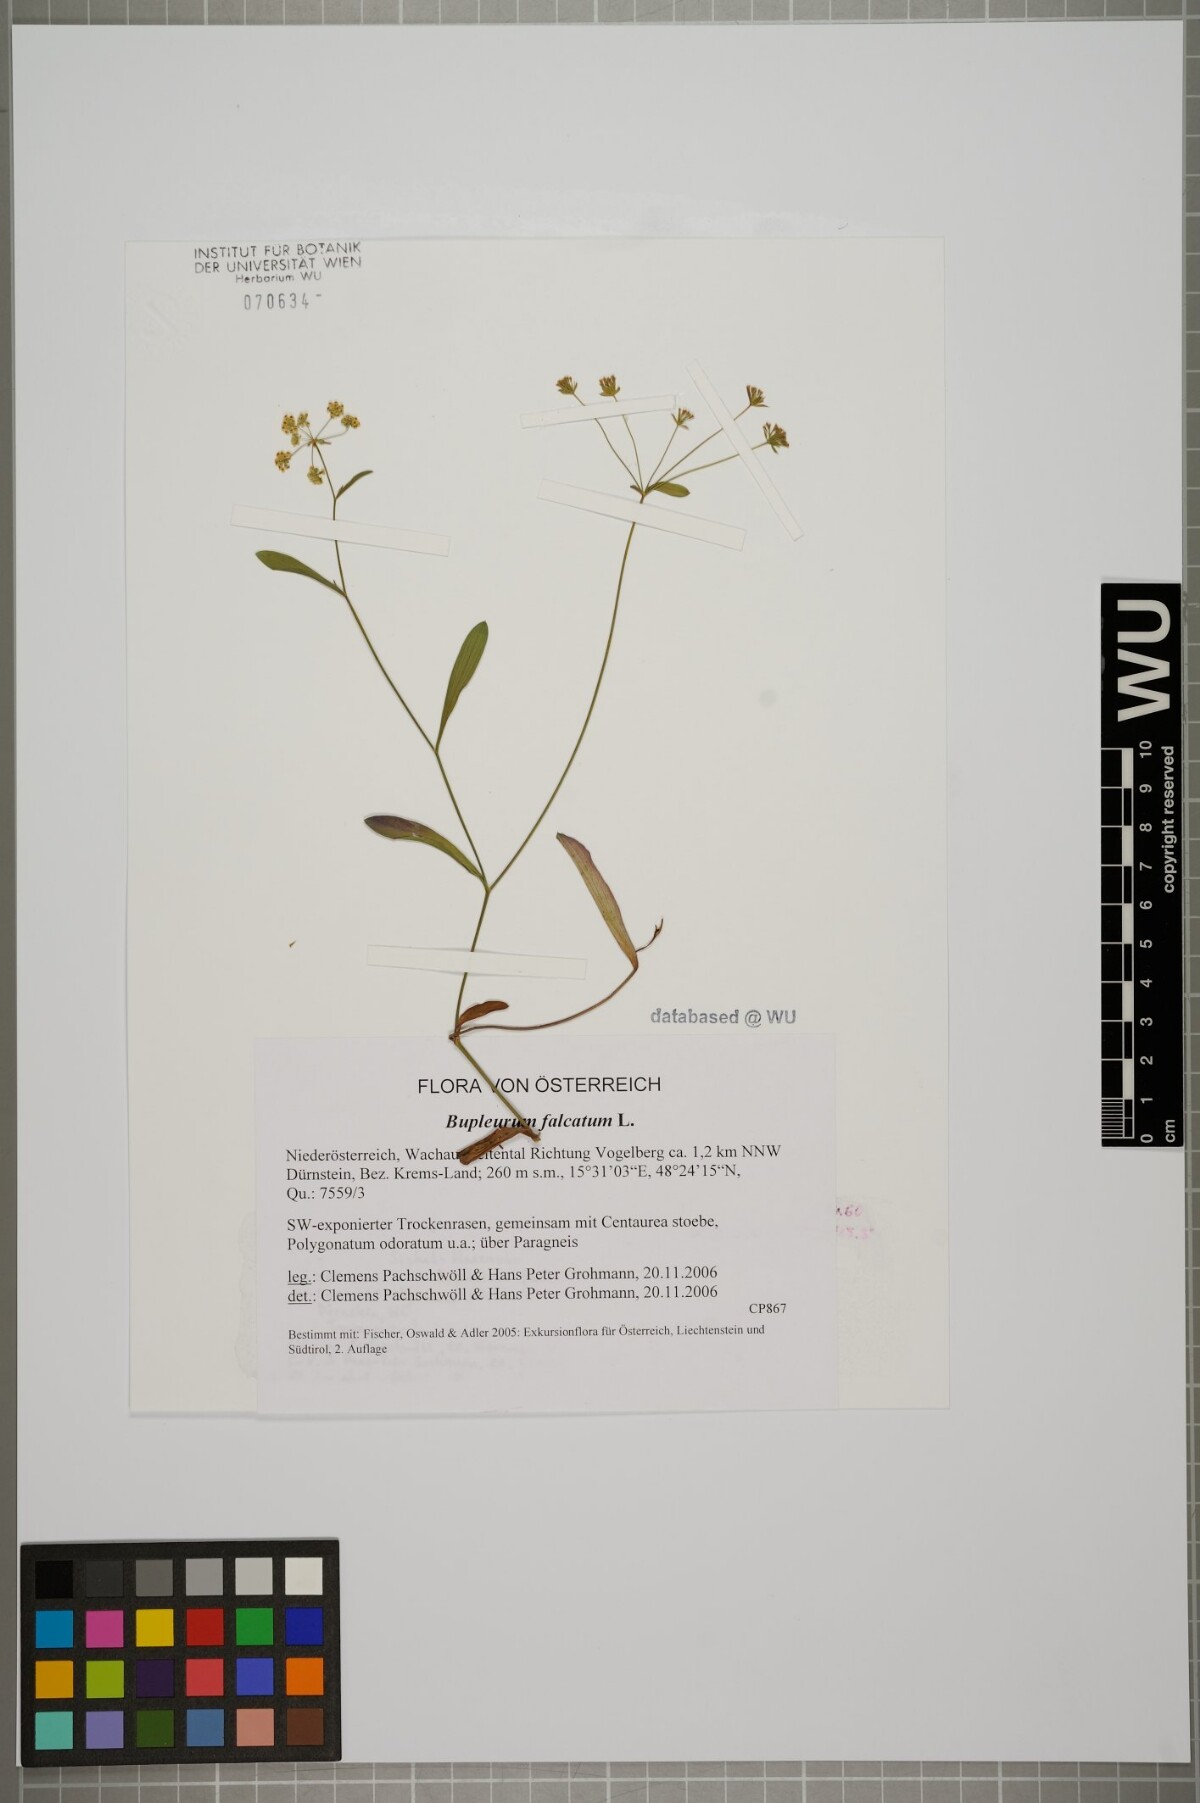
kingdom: Plantae
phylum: Tracheophyta
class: Magnoliopsida
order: Apiales
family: Apiaceae
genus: Bupleurum
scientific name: Bupleurum falcatum
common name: Sickle-leaved hare's-ear
